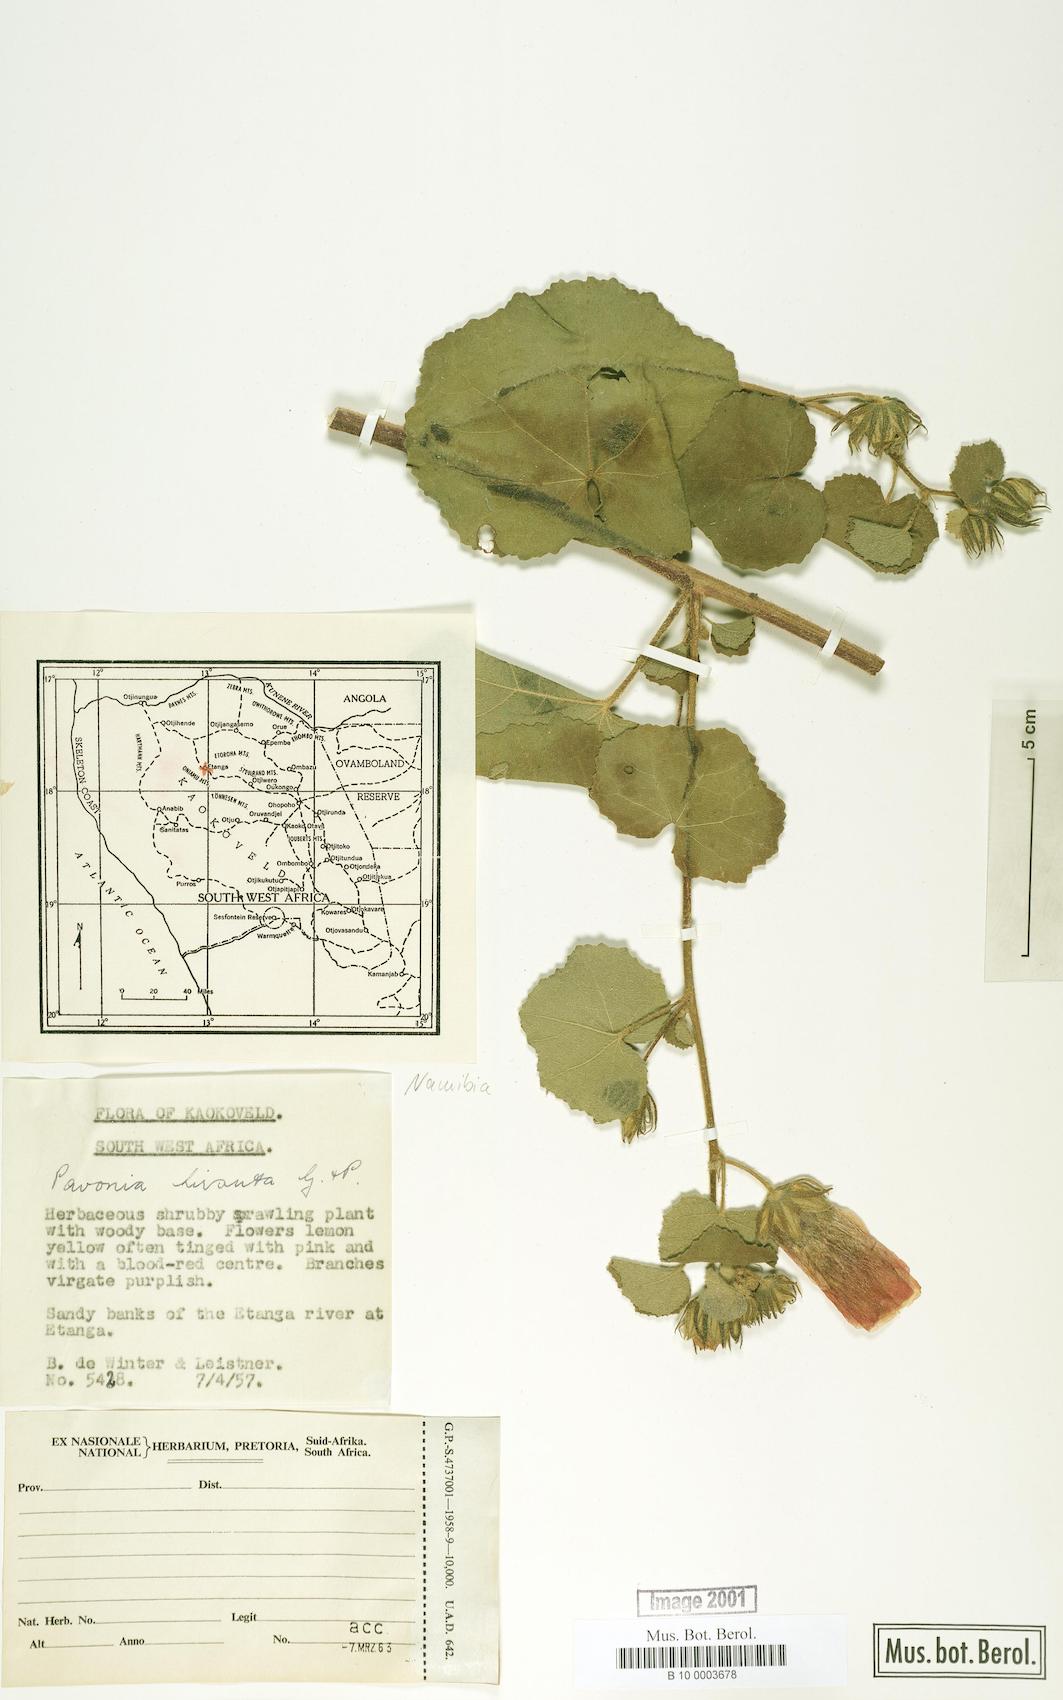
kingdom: Plantae
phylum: Tracheophyta
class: Magnoliopsida
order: Malvales
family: Malvaceae
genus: Pavonia
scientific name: Pavonia senegalensis
